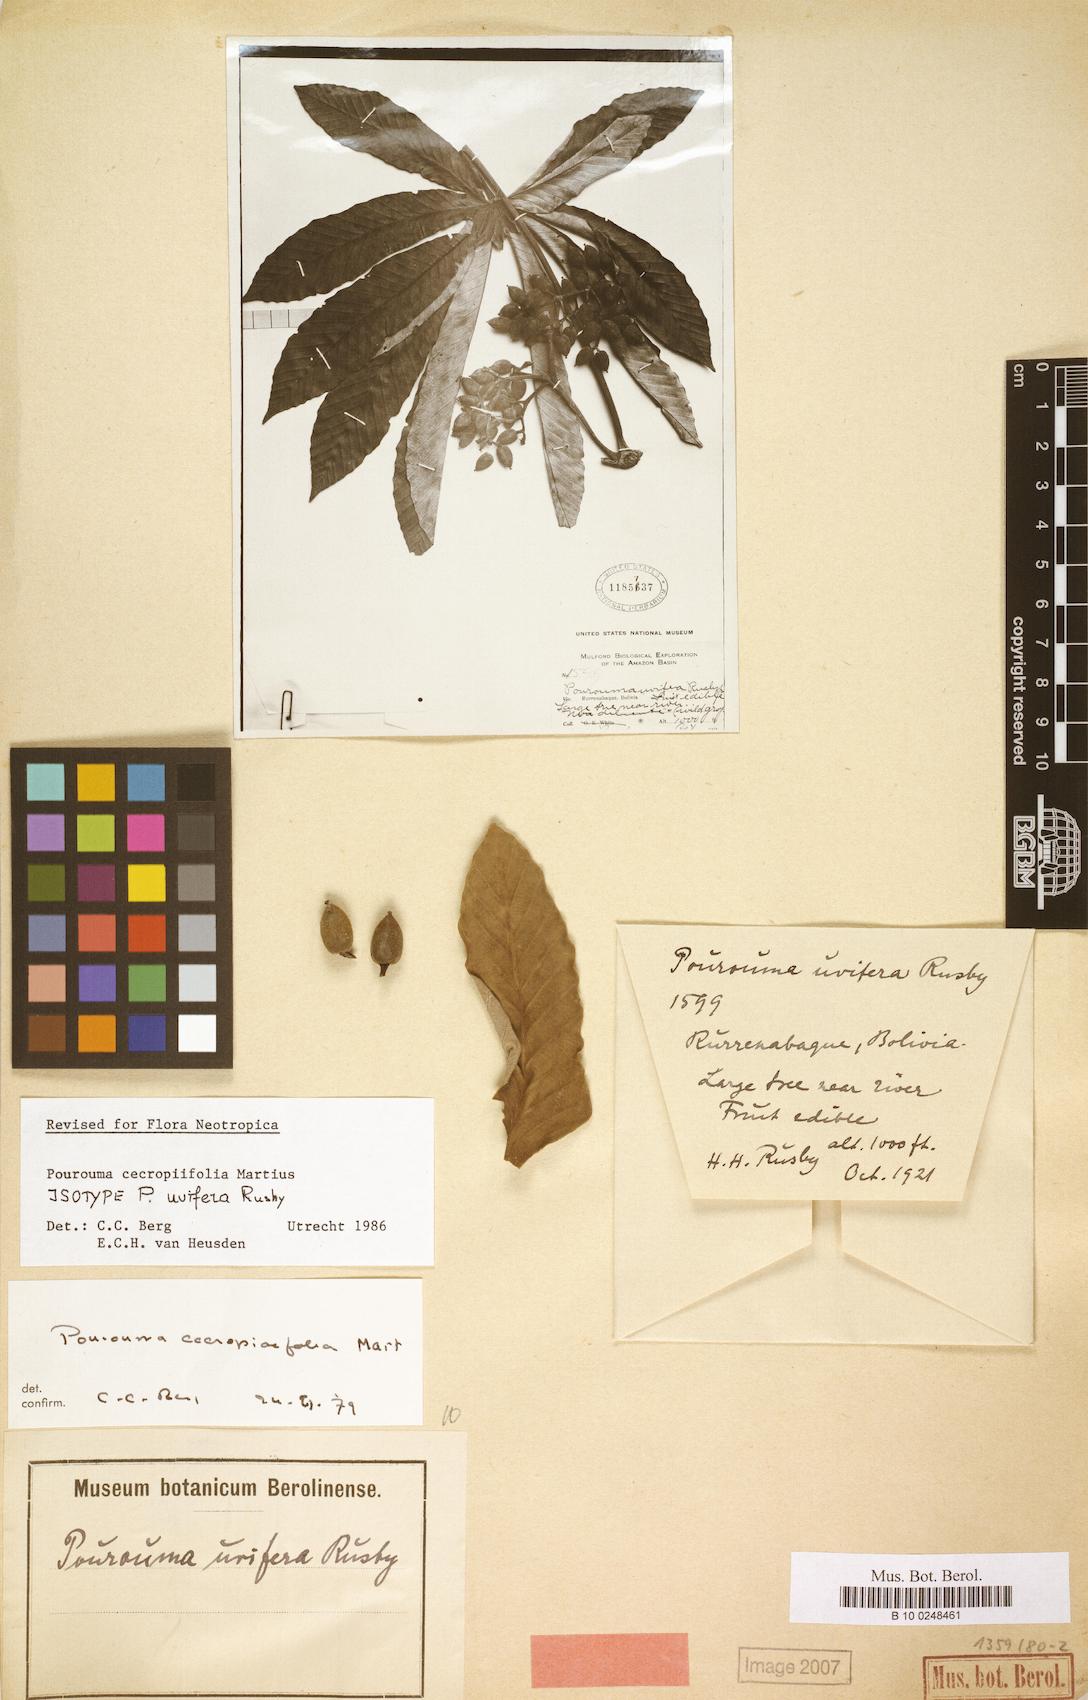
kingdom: Plantae
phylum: Tracheophyta
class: Magnoliopsida
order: Rosales
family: Urticaceae
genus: Pourouma
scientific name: Pourouma cecropiifolia
